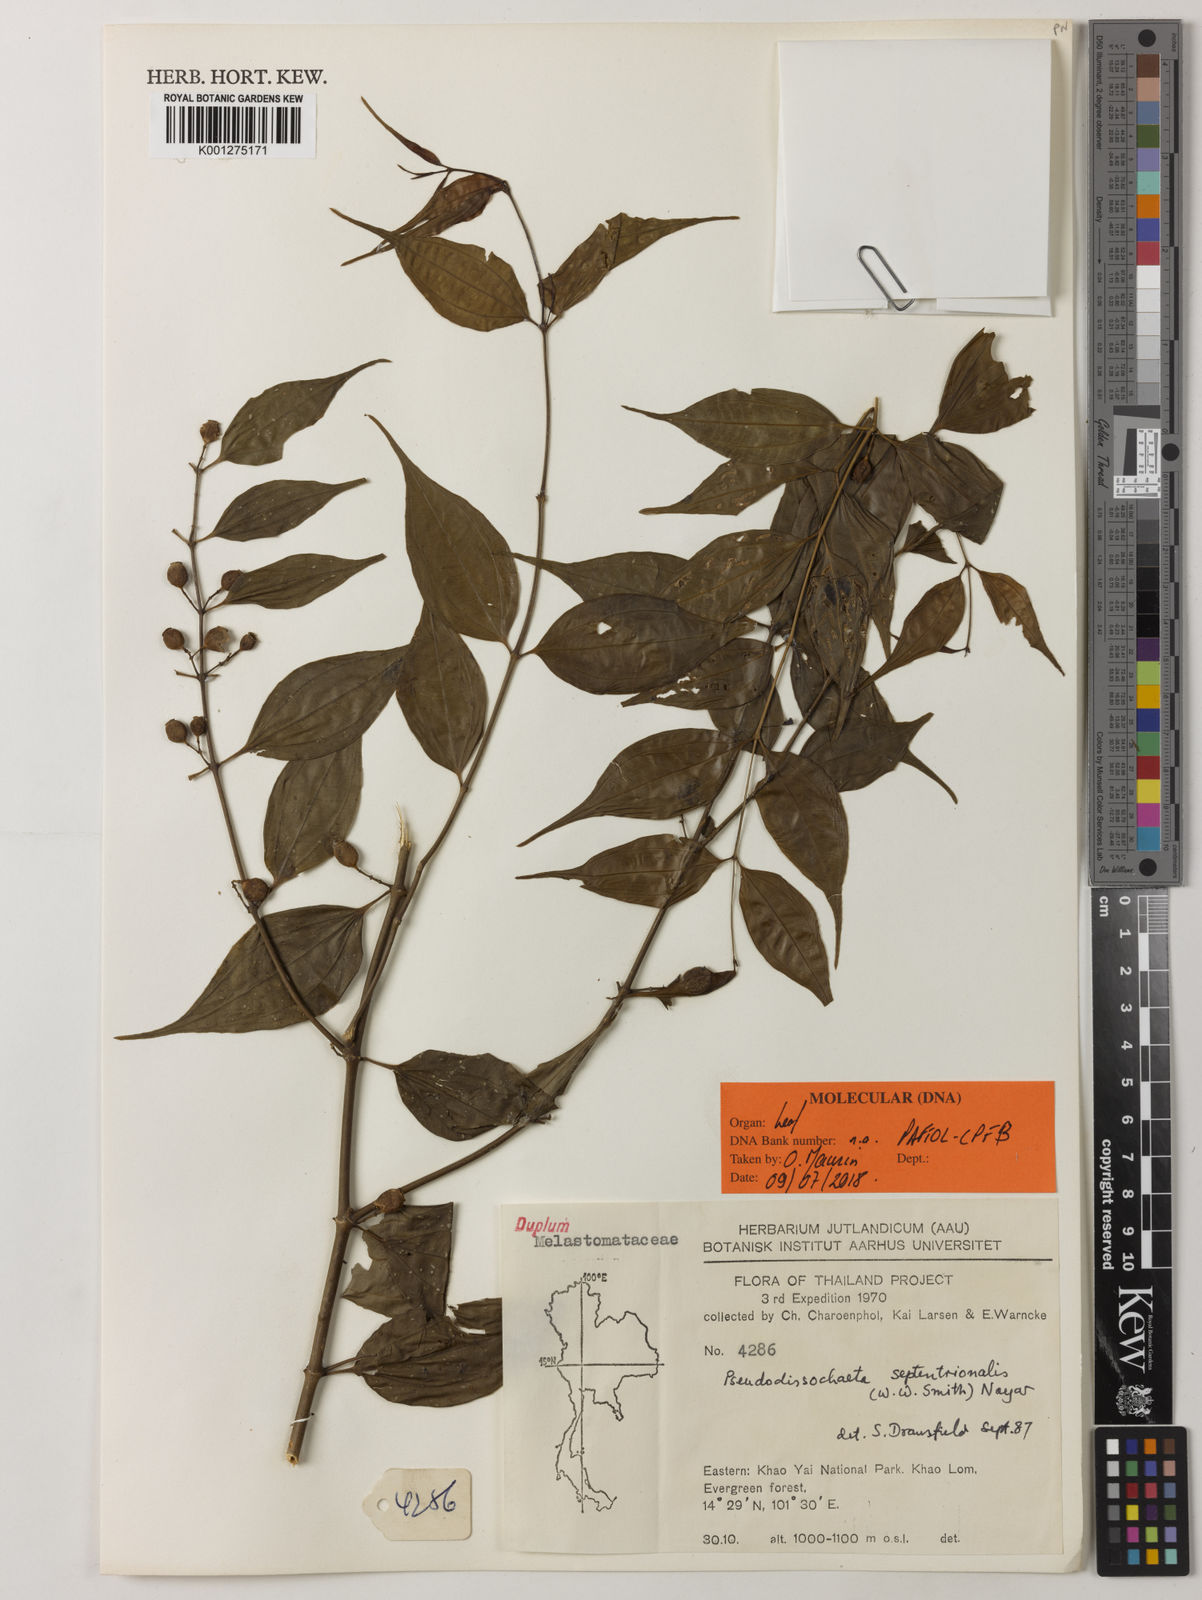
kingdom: Plantae
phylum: Tracheophyta
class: Magnoliopsida
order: Myrtales
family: Melastomataceae
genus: Pseudodissochaeta
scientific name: Pseudodissochaeta septentrionalis
